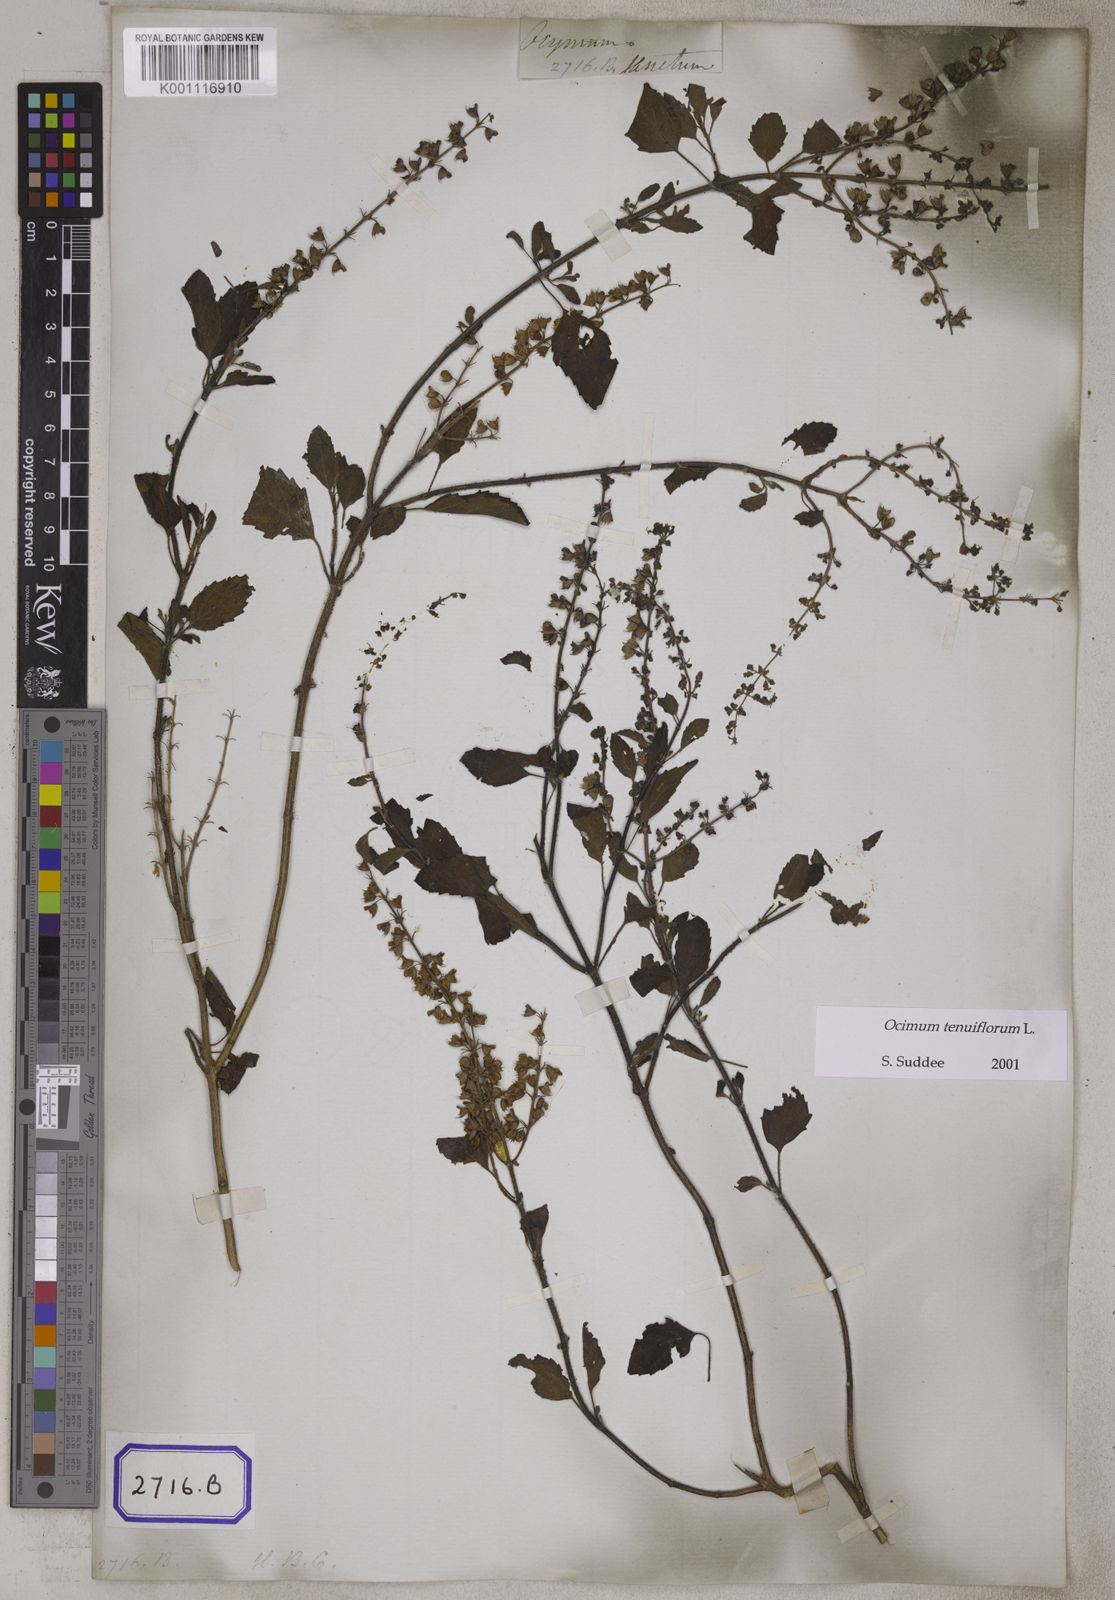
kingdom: Plantae
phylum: Tracheophyta
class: Magnoliopsida
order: Lamiales
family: Lamiaceae
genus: Ocimum
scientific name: Ocimum tenuiflorum
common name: Sacred basil
